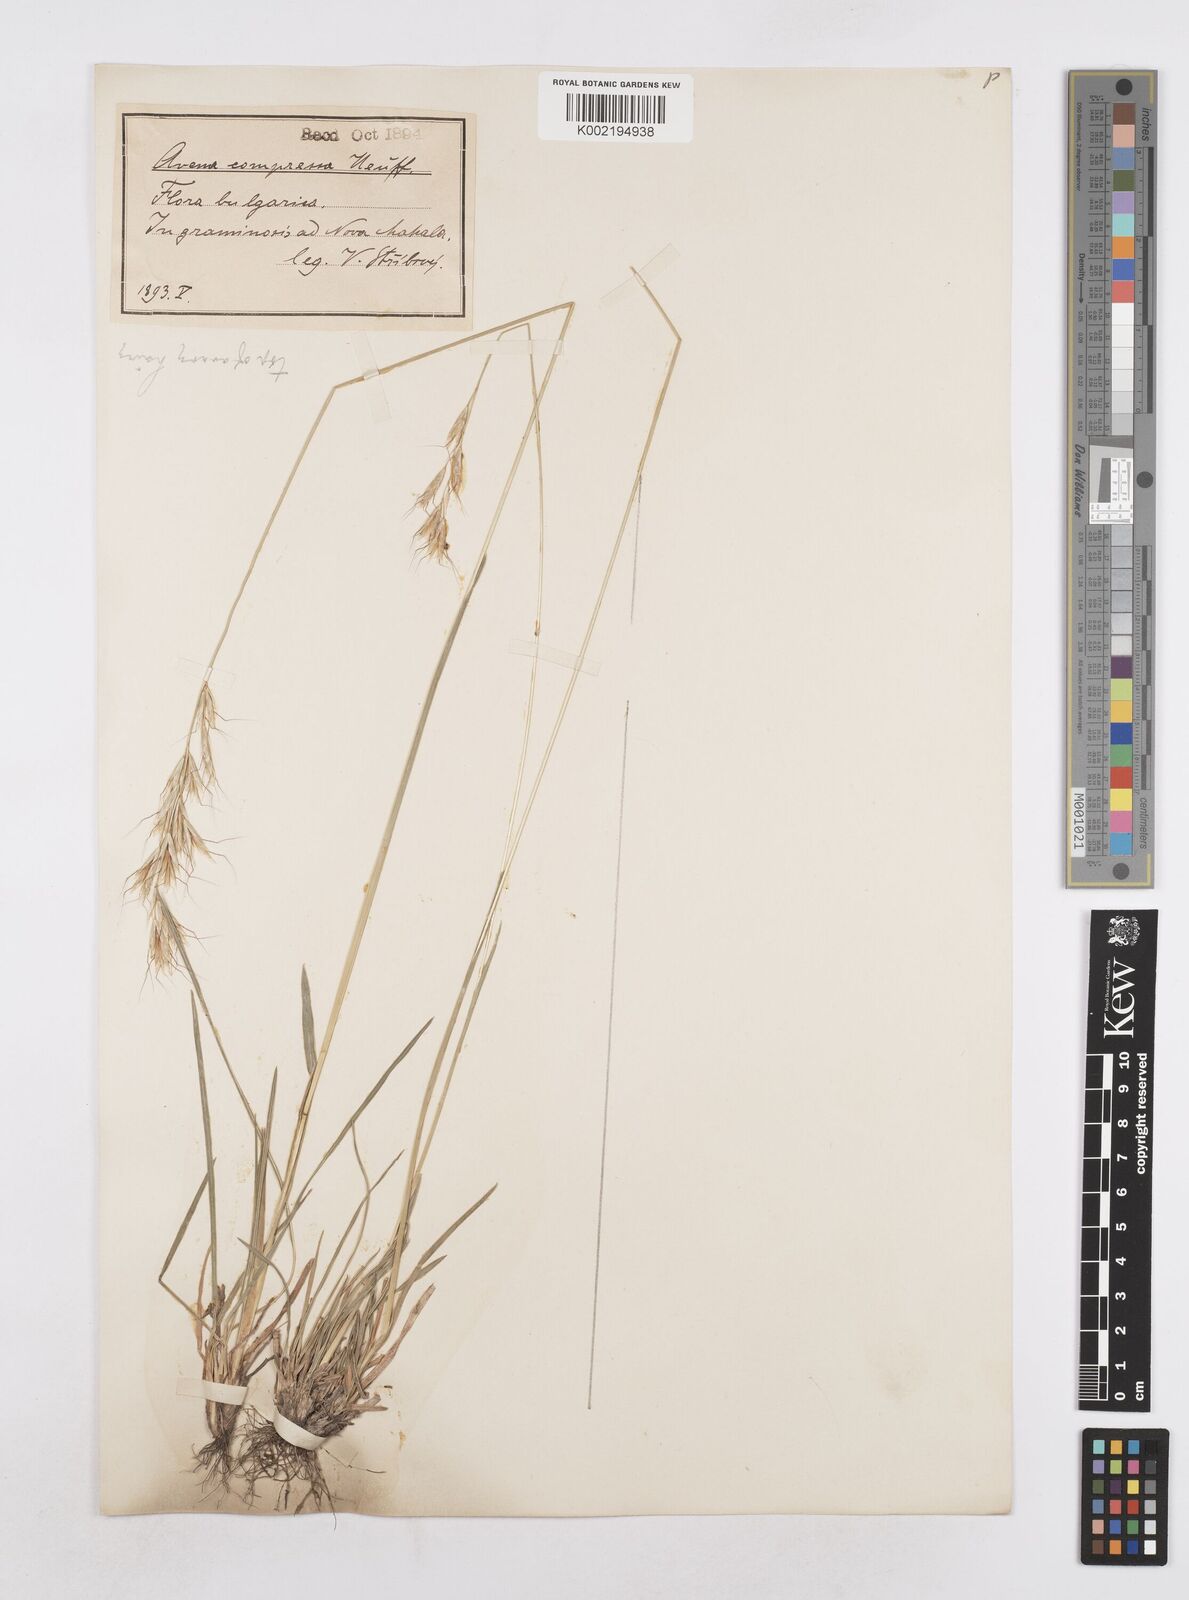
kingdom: Plantae
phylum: Tracheophyta
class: Liliopsida
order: Poales
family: Poaceae
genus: Helictochloa
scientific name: Helictochloa compressa
